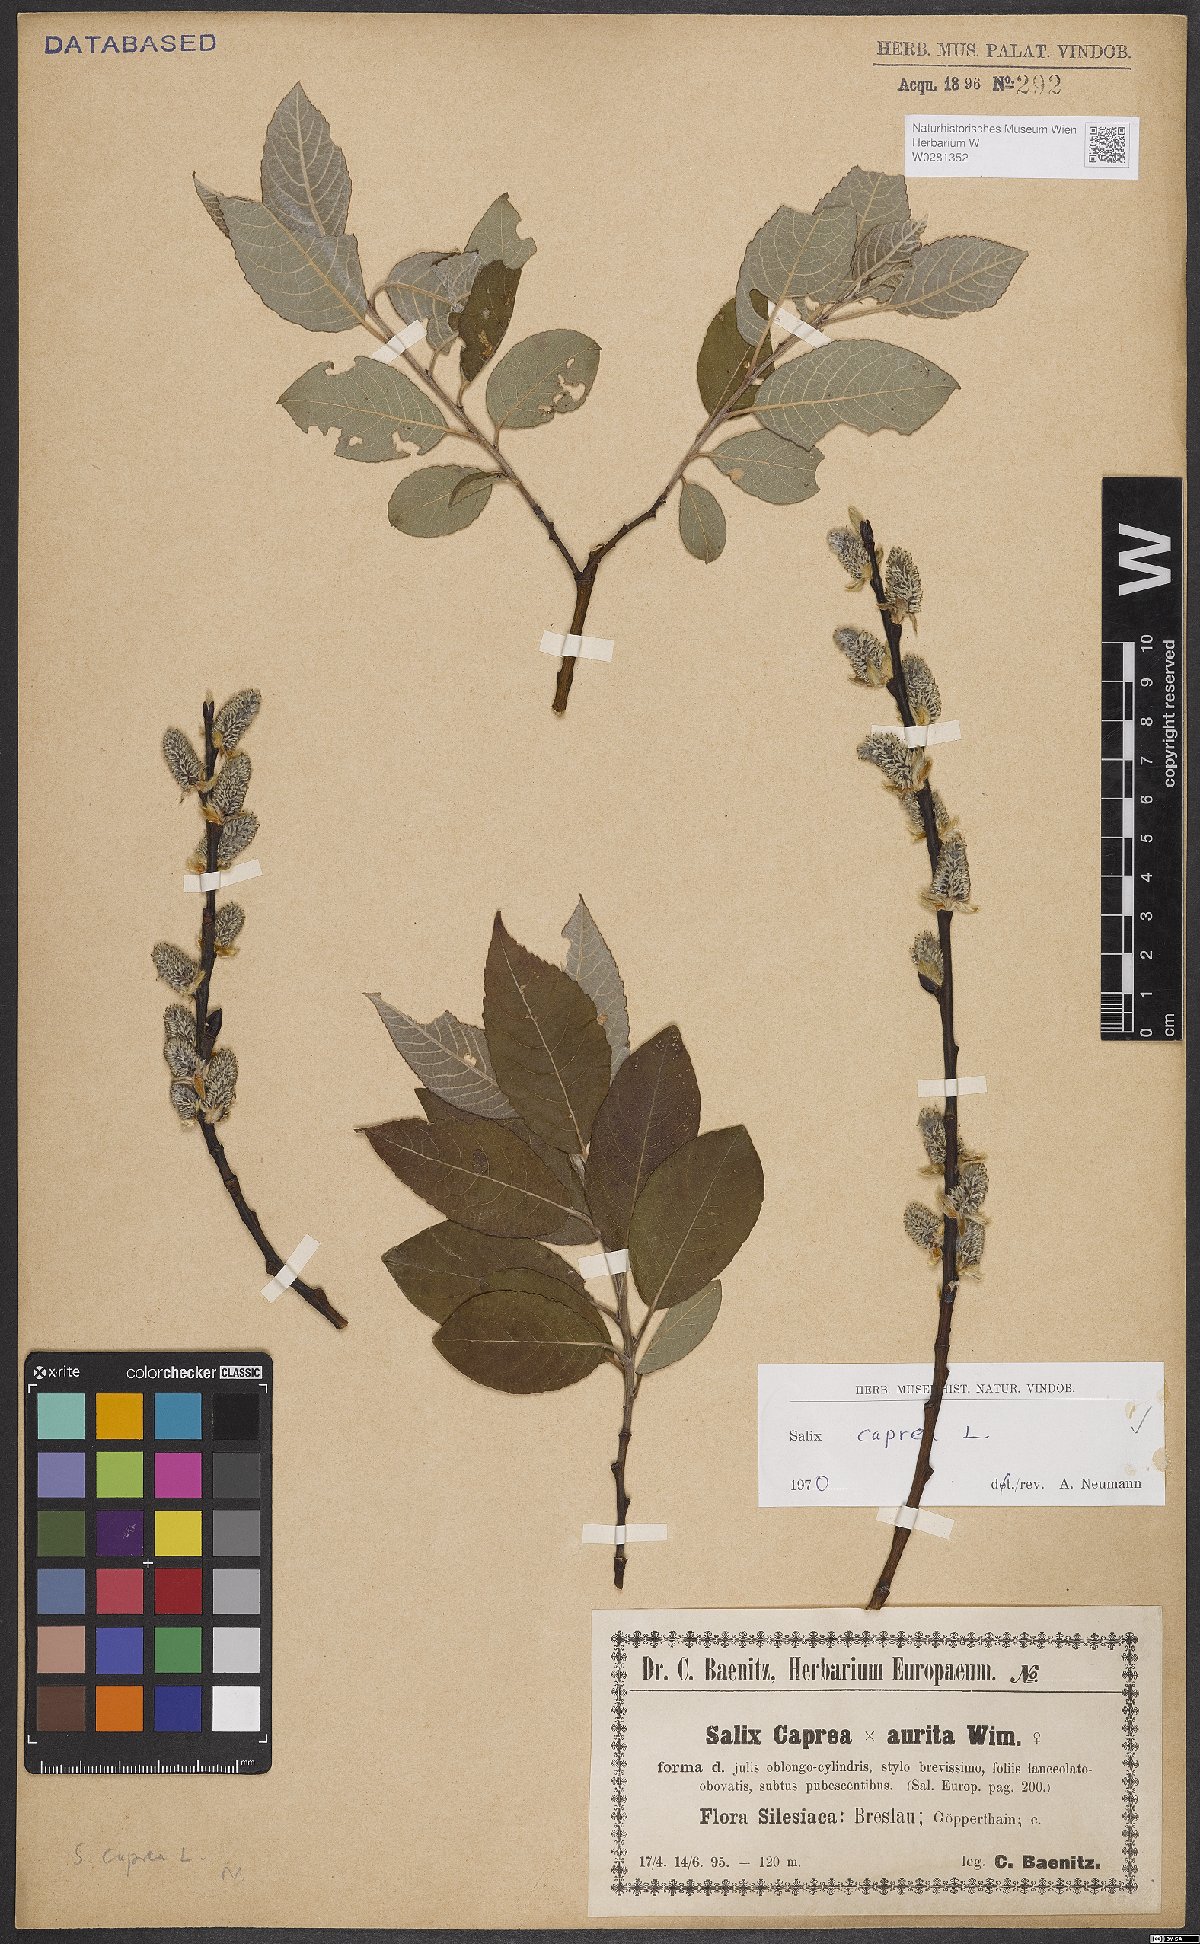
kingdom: Plantae
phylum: Tracheophyta
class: Magnoliopsida
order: Malpighiales
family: Salicaceae
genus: Salix
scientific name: Salix caprea
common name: Goat willow
